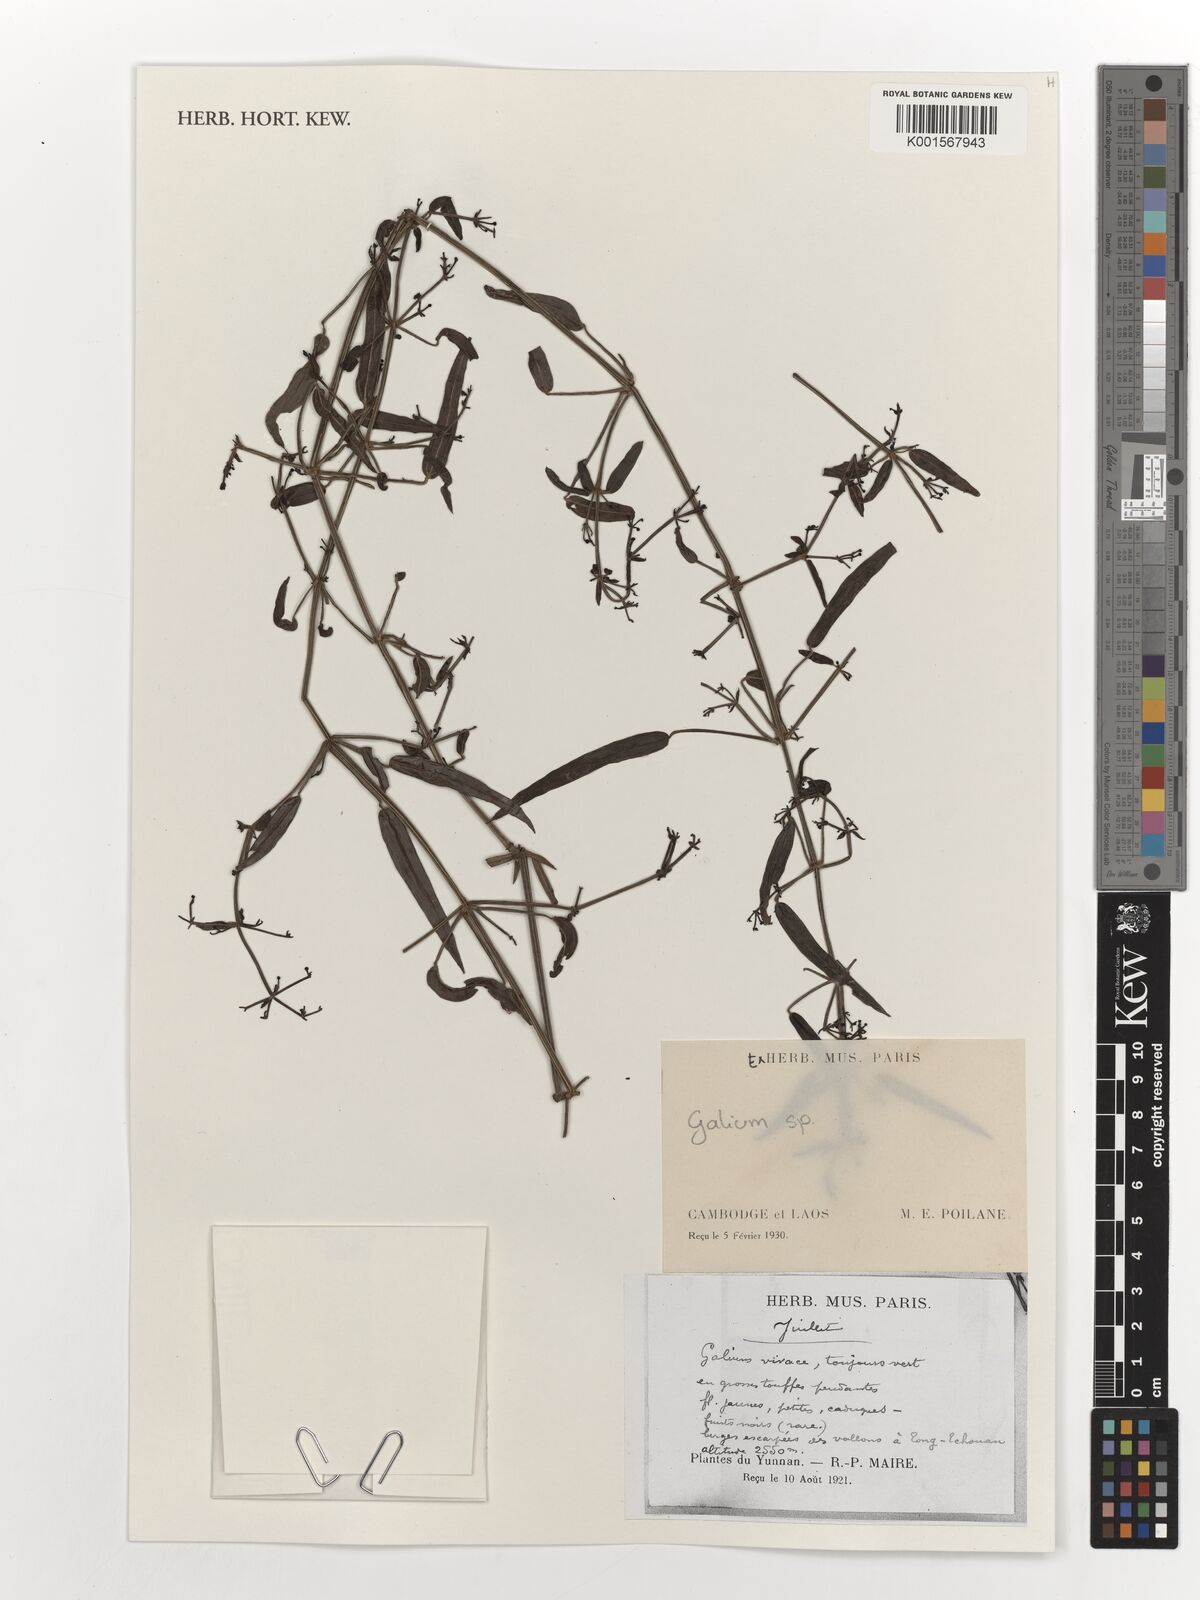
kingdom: Plantae
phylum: Tracheophyta
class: Magnoliopsida
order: Gentianales
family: Rubiaceae
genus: Galium
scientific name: Galium
